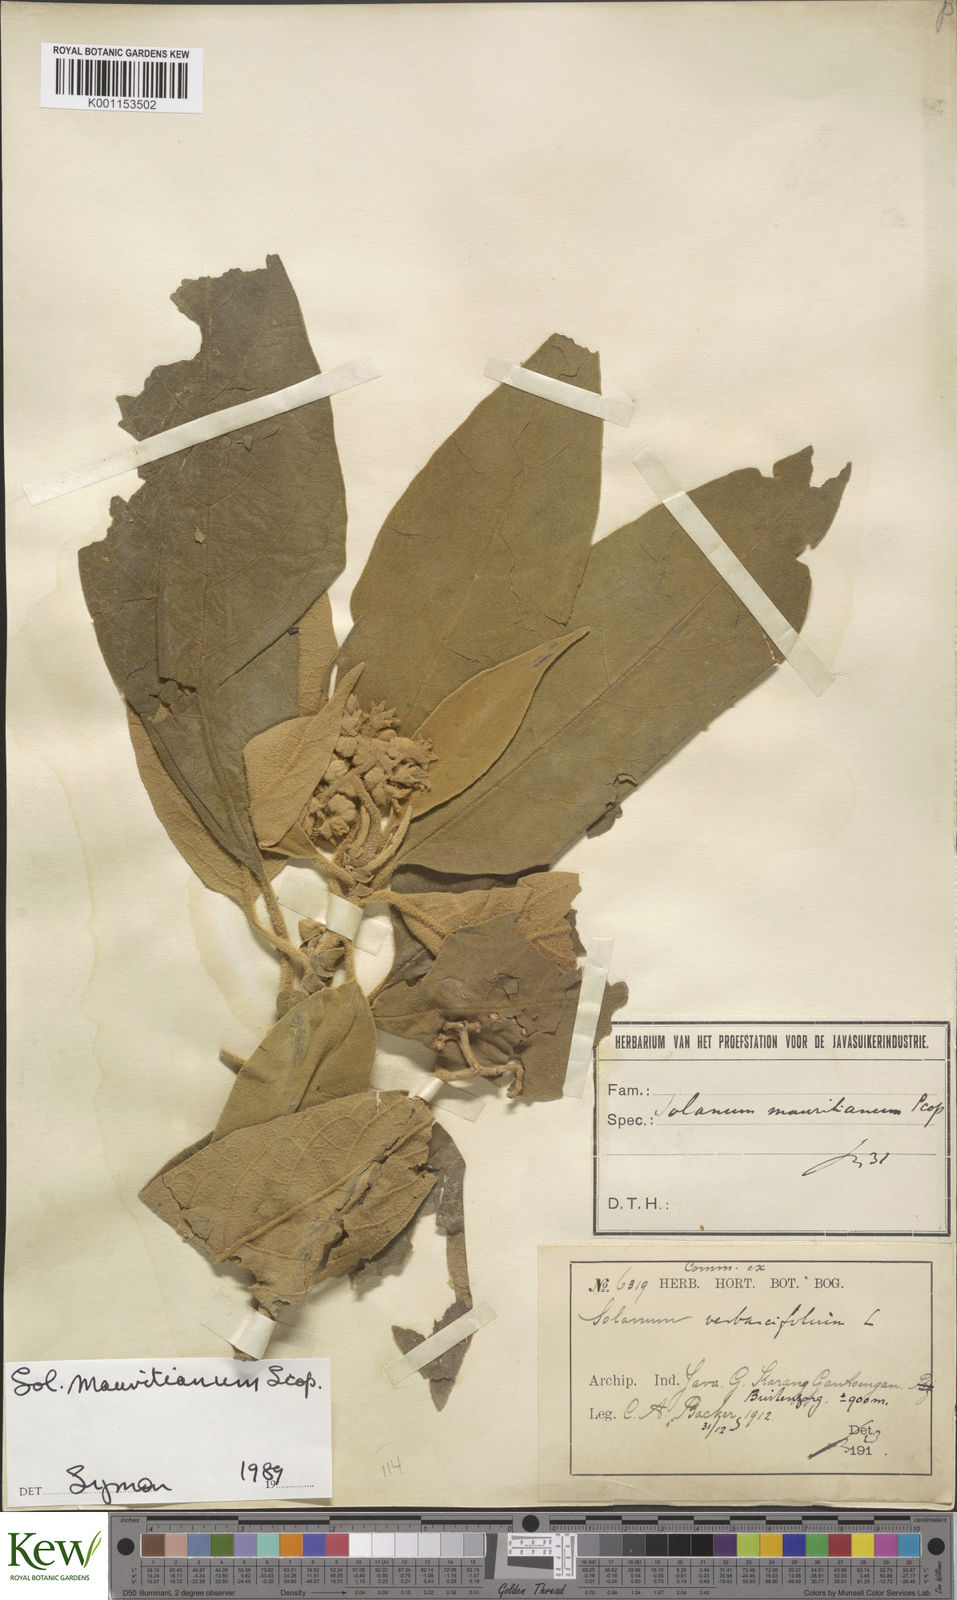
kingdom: Plantae
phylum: Tracheophyta
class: Magnoliopsida
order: Solanales
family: Solanaceae
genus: Solanum
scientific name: Solanum mauritianum
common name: Earleaf nightshade
